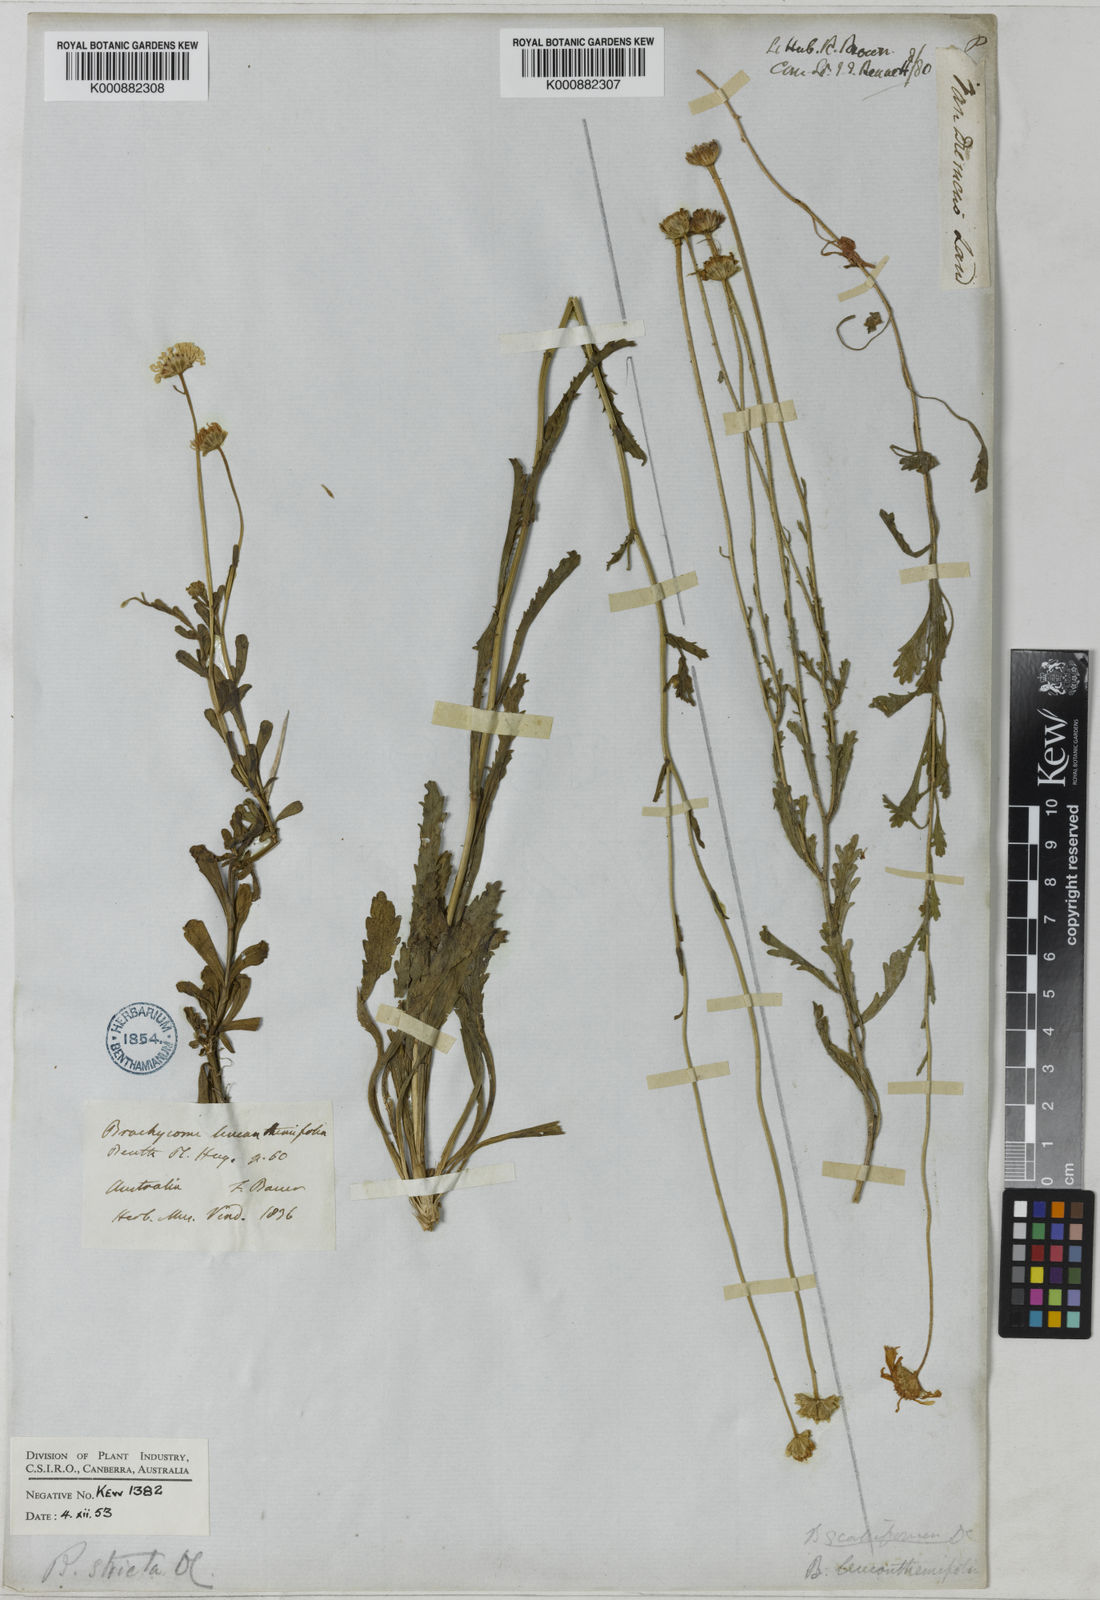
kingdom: Plantae
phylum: Tracheophyta
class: Magnoliopsida
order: Asterales
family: Asteraceae
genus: Brachyscome
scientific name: Brachyscome aculeata
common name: Hill daisy
